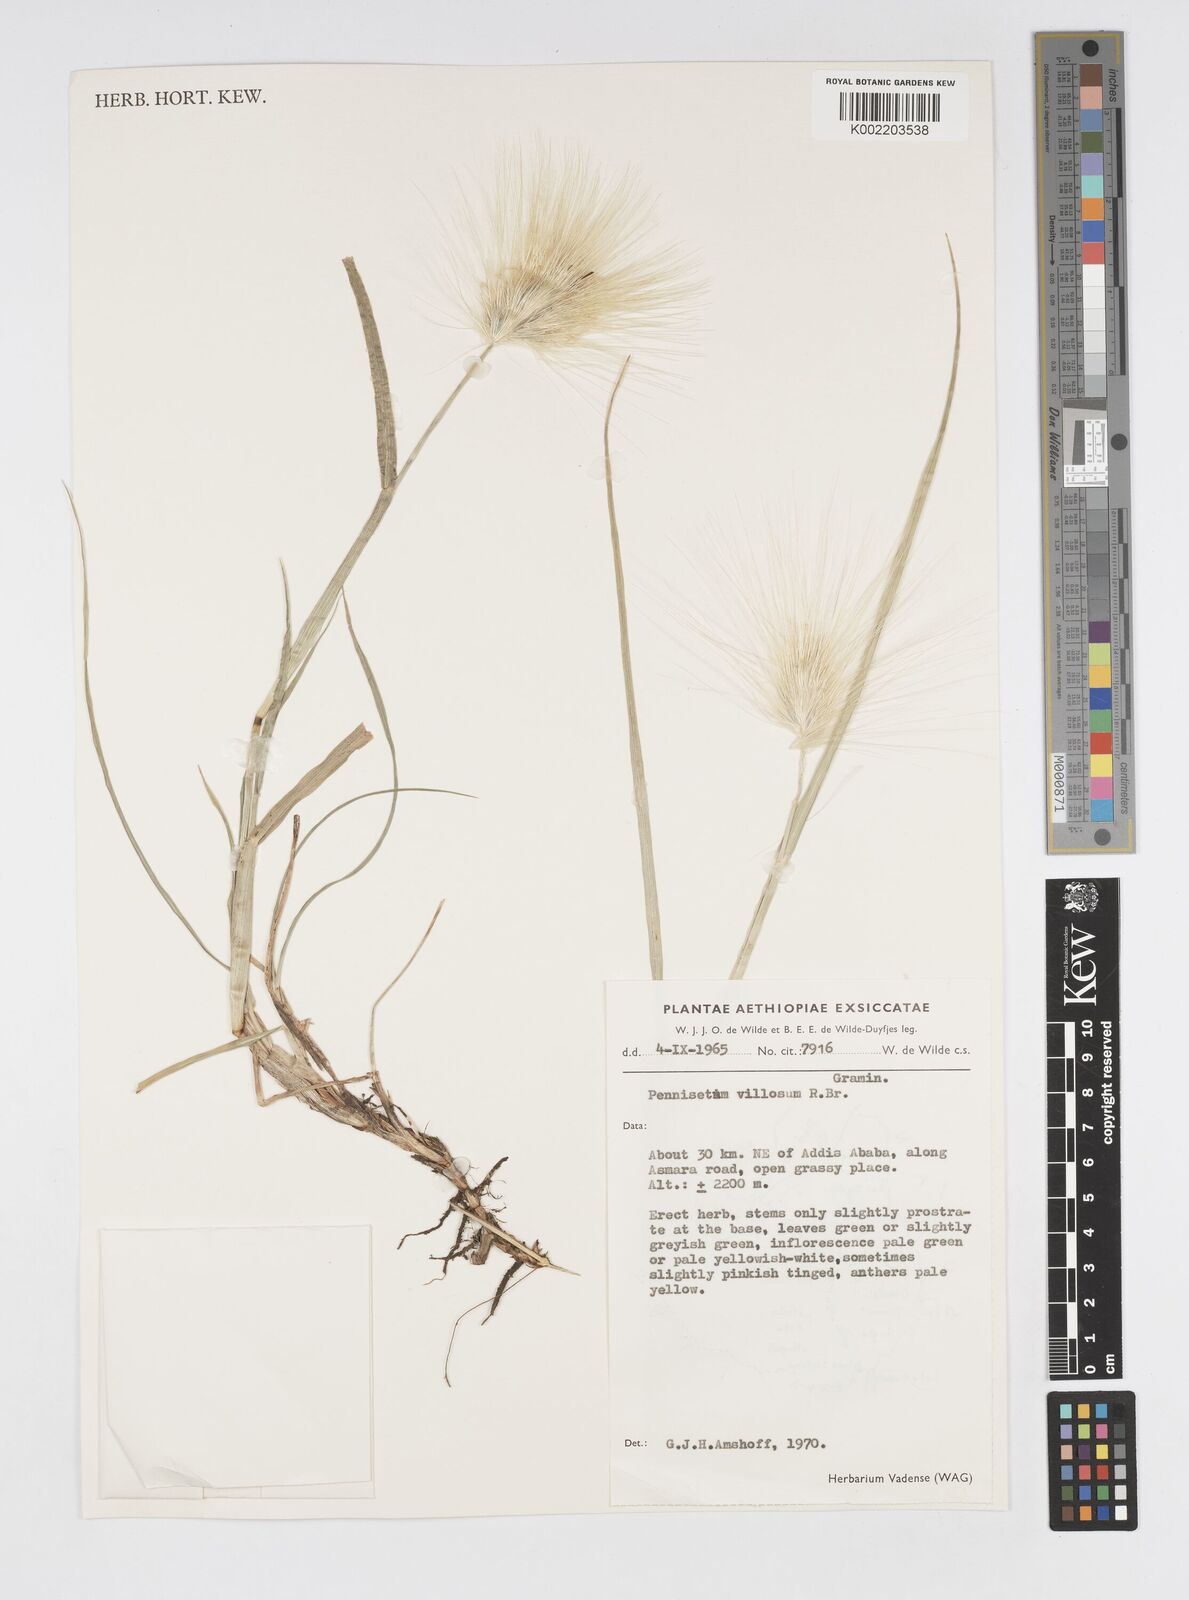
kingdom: Plantae
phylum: Tracheophyta
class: Liliopsida
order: Poales
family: Poaceae
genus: Cenchrus
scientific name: Cenchrus longisetus
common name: Feathertop
